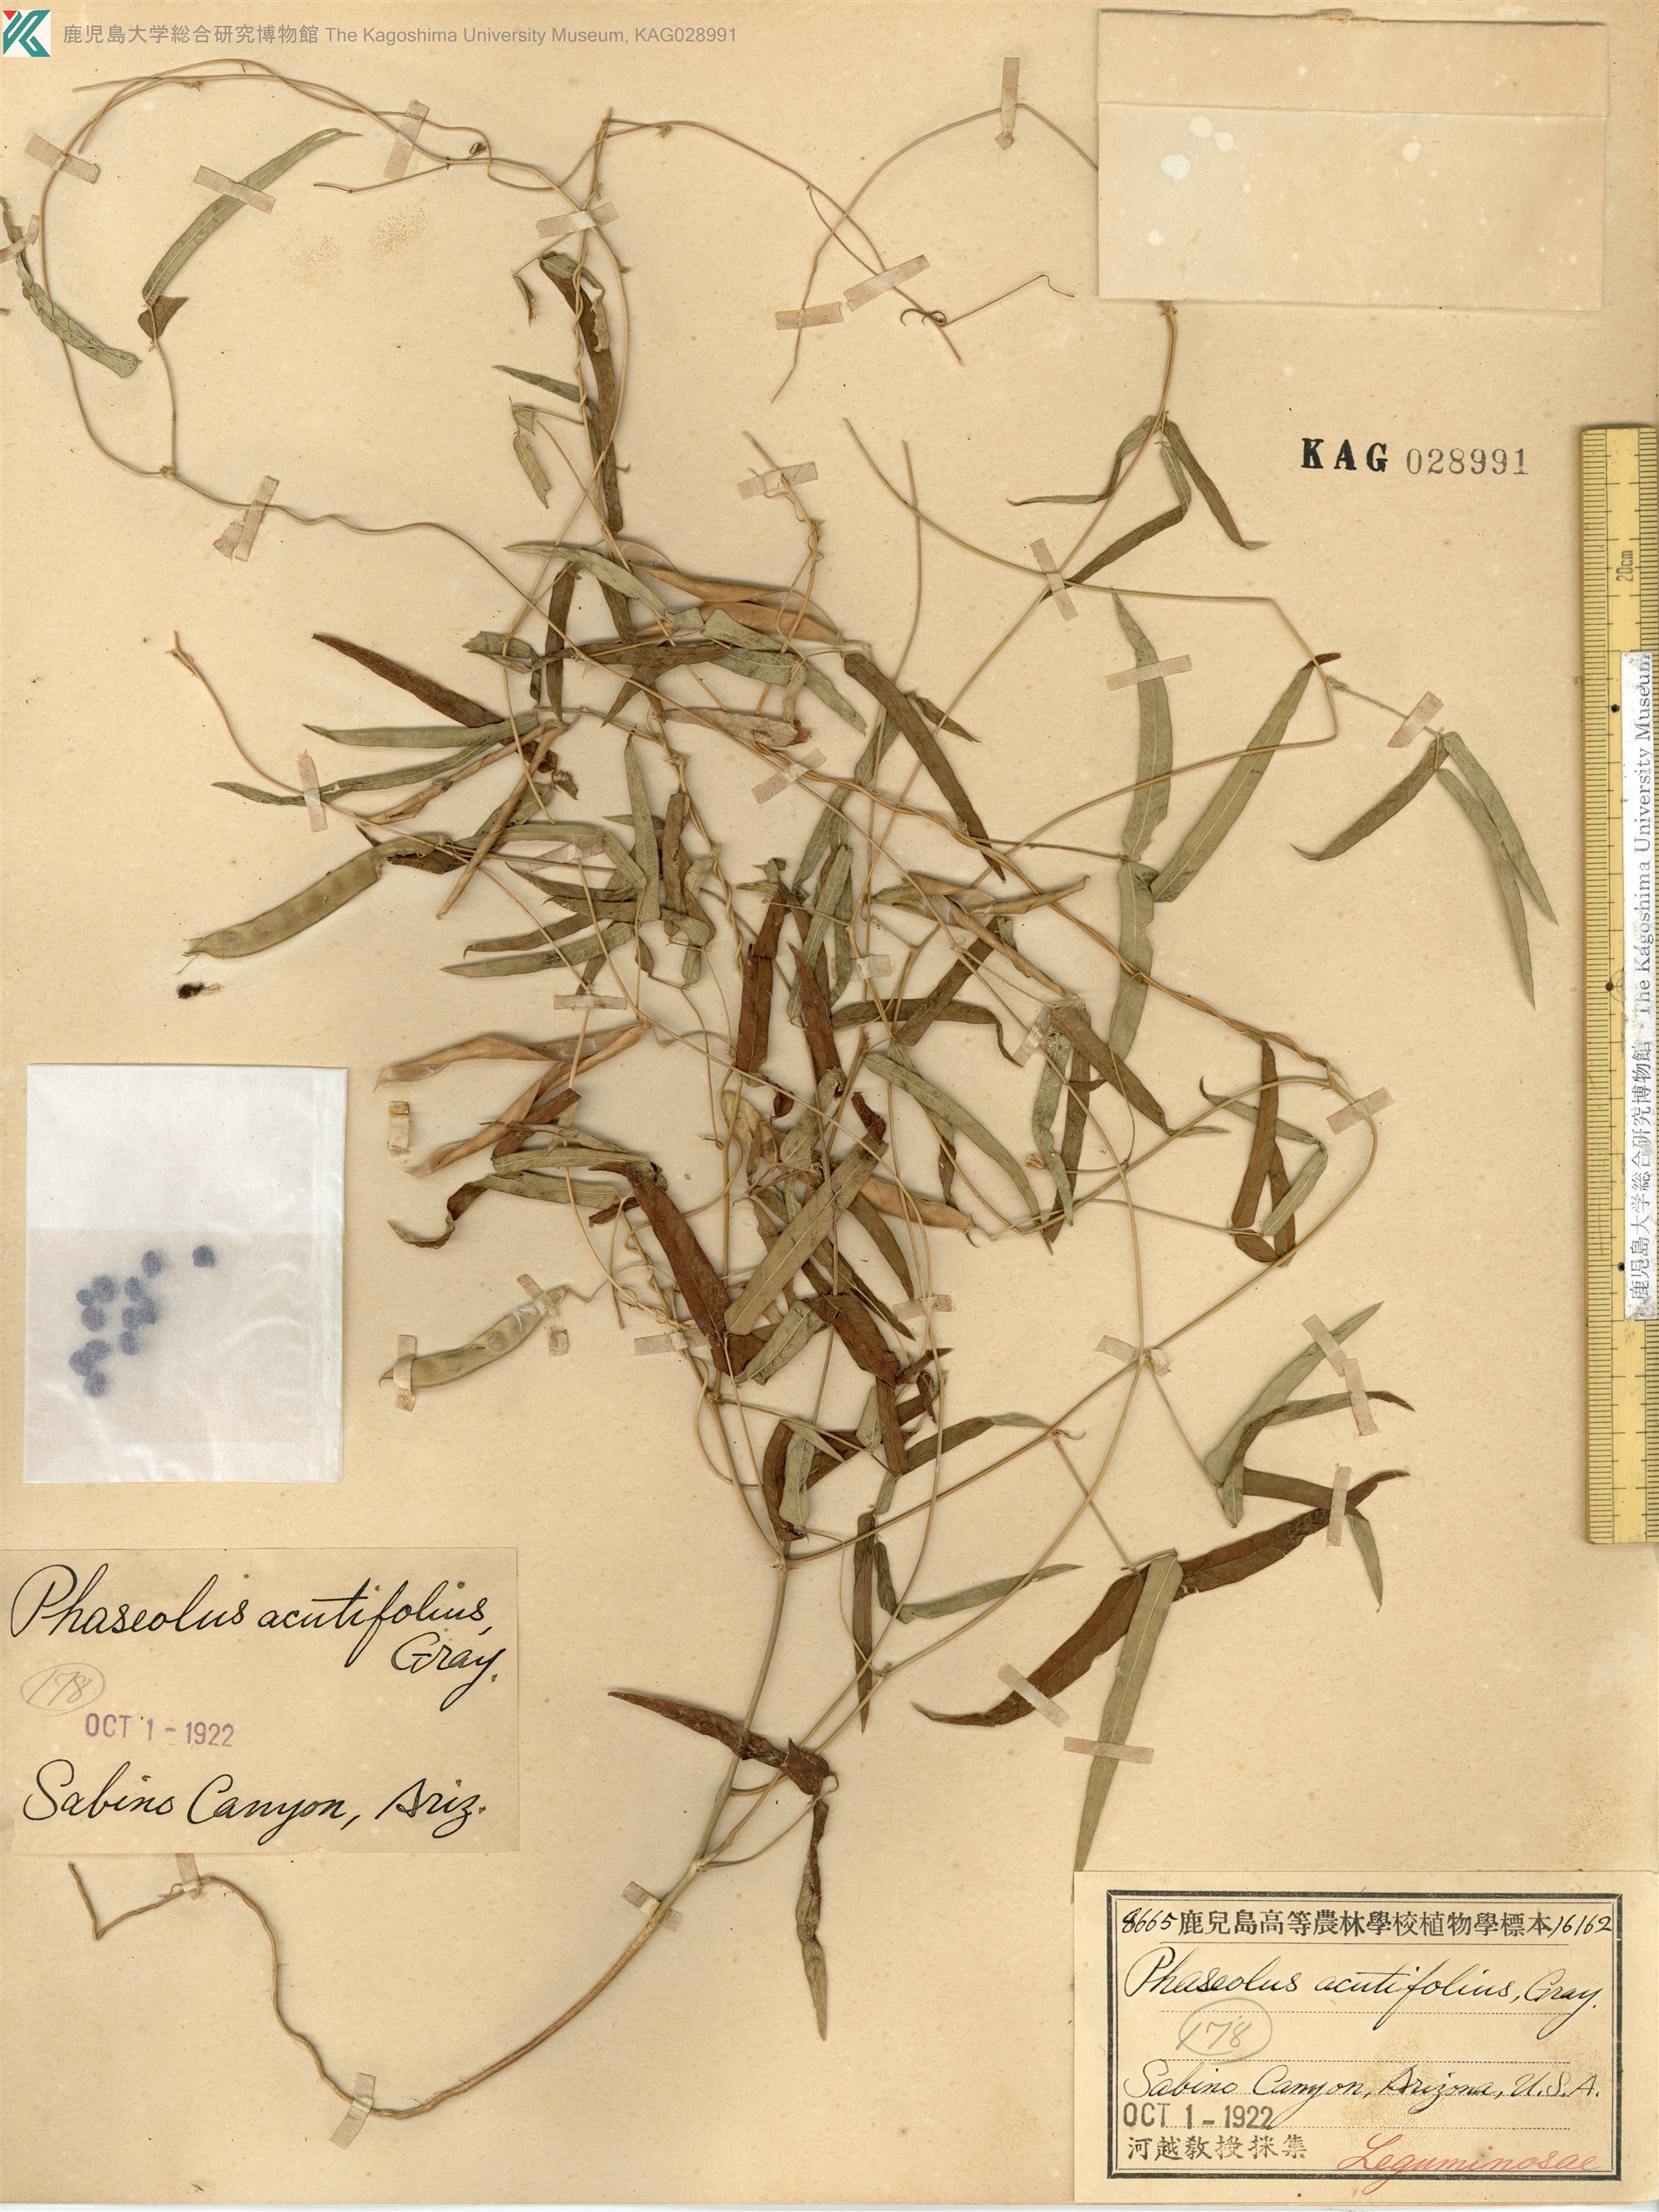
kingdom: Plantae
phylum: Tracheophyta
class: Magnoliopsida
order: Fabales
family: Fabaceae
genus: Phaseolus
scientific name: Phaseolus acutifolius
